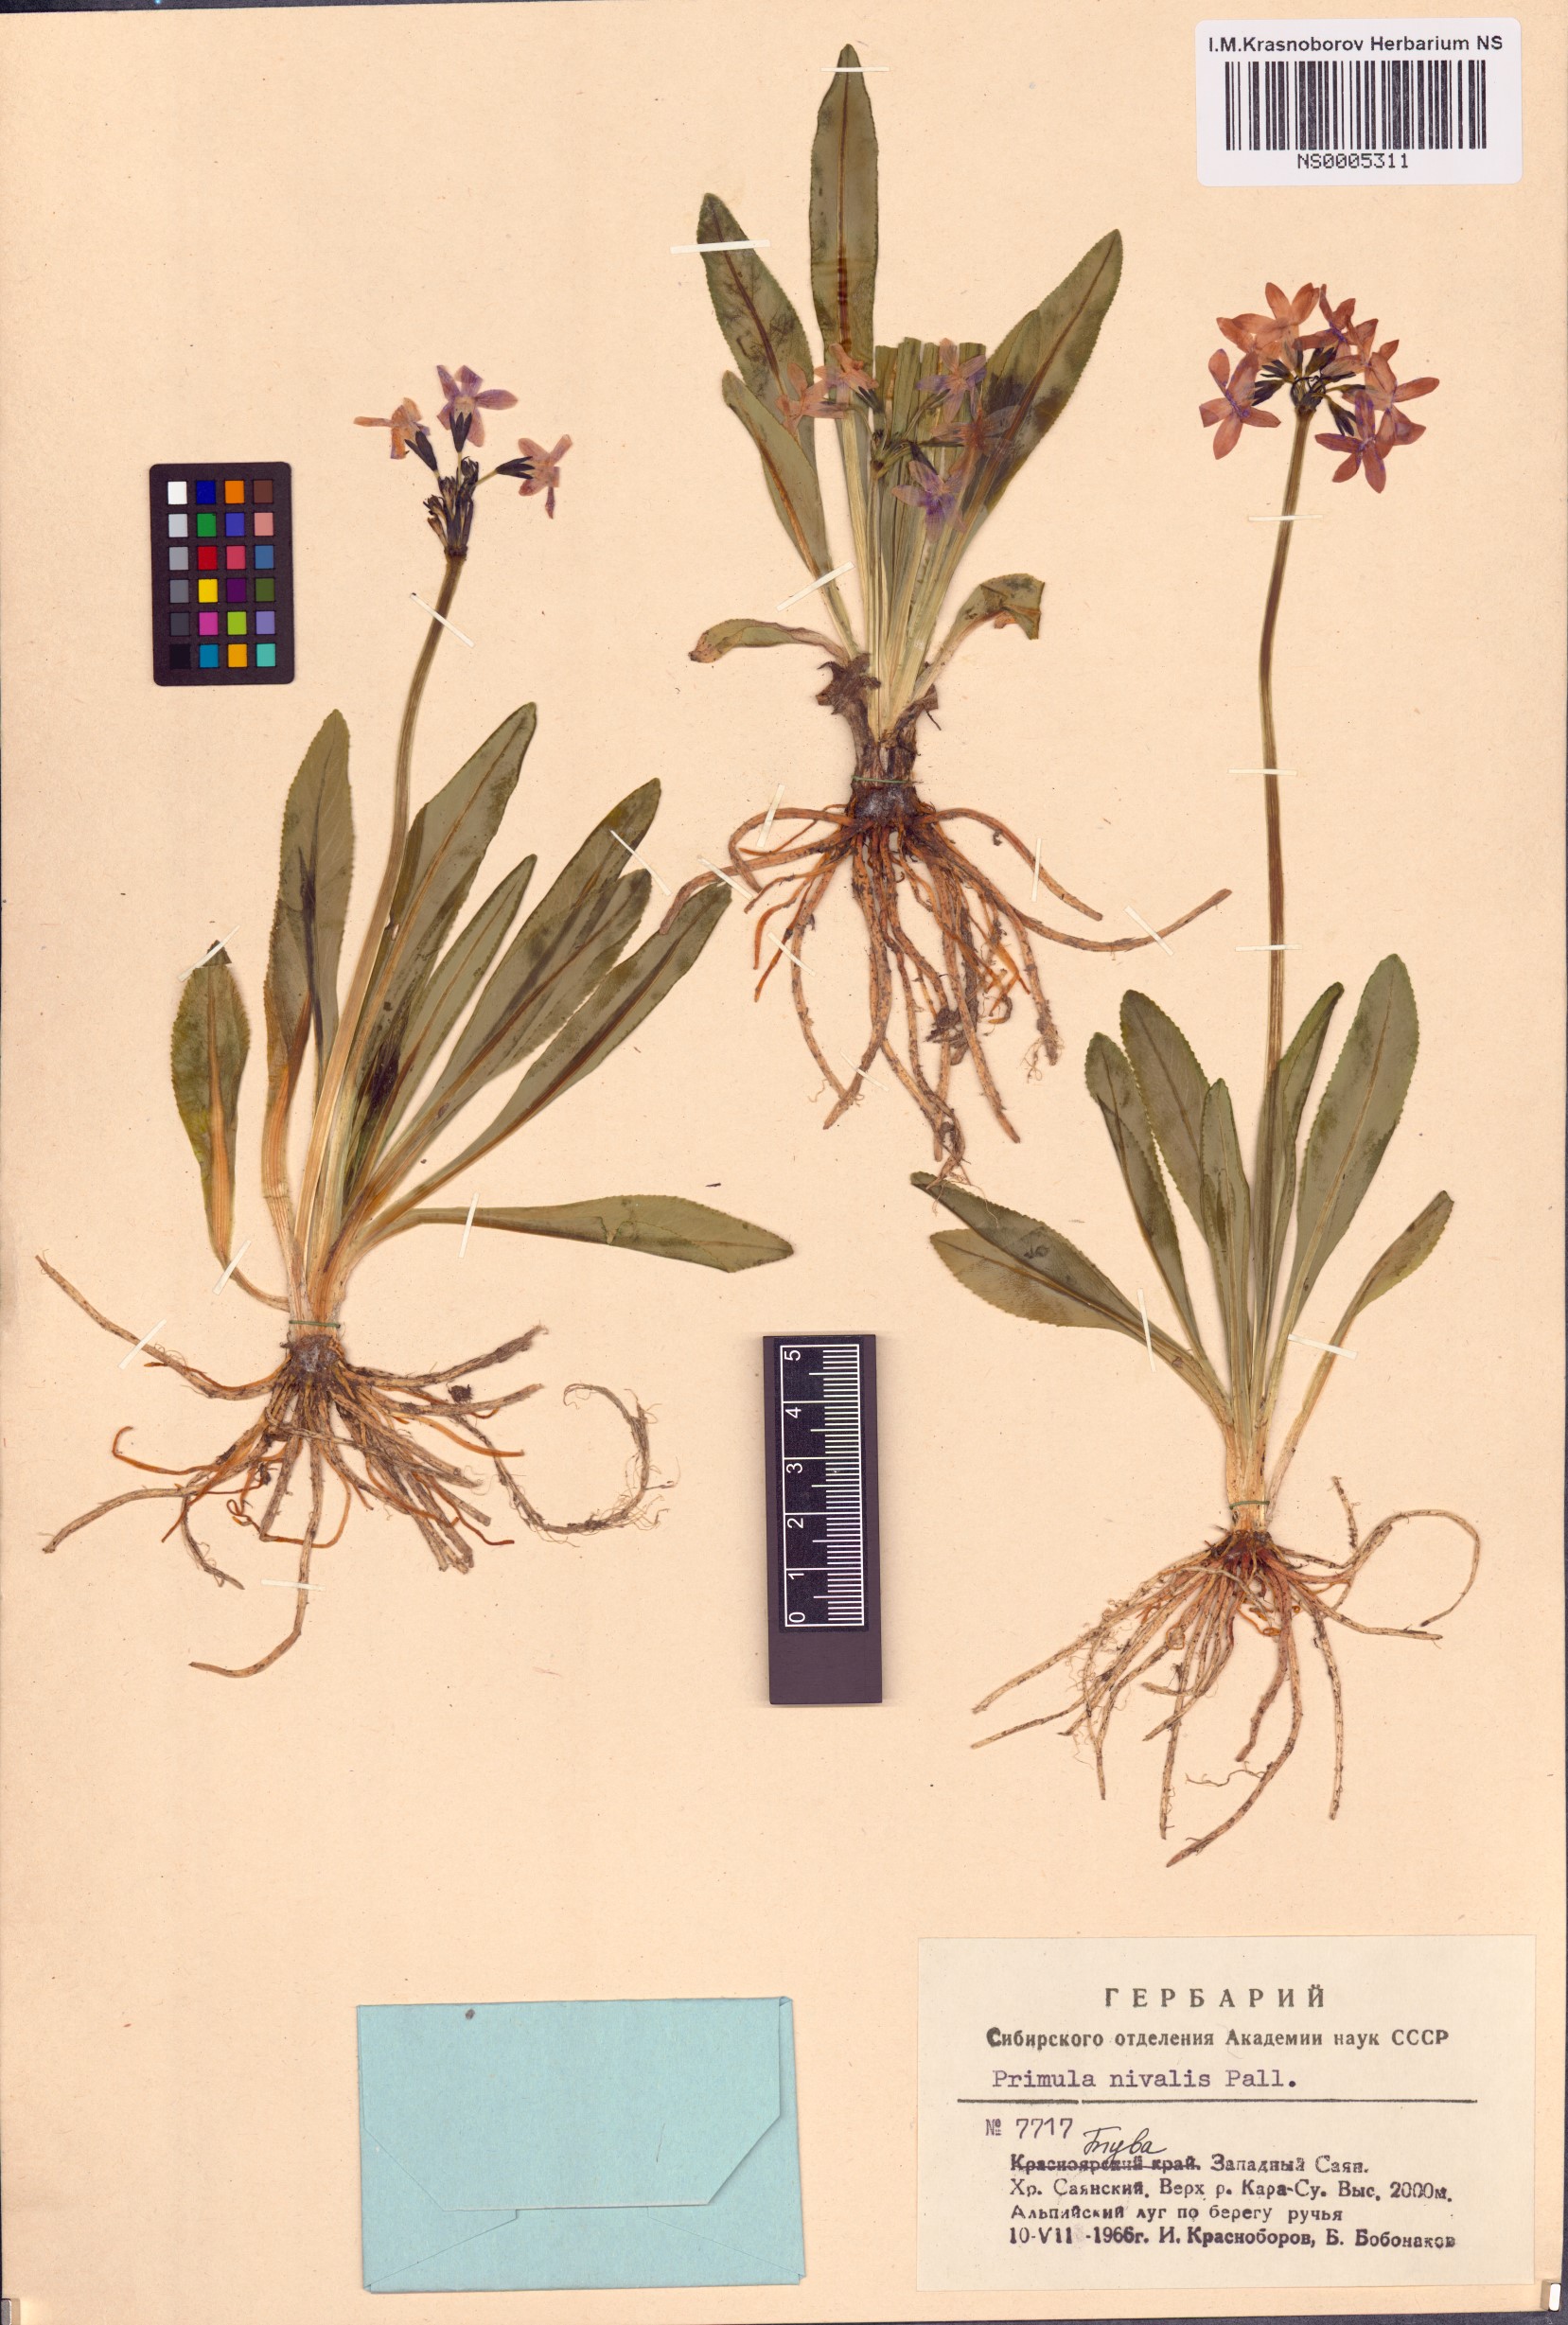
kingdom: Plantae
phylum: Tracheophyta
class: Magnoliopsida
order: Ericales
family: Primulaceae
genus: Primula
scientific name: Primula nivalis
